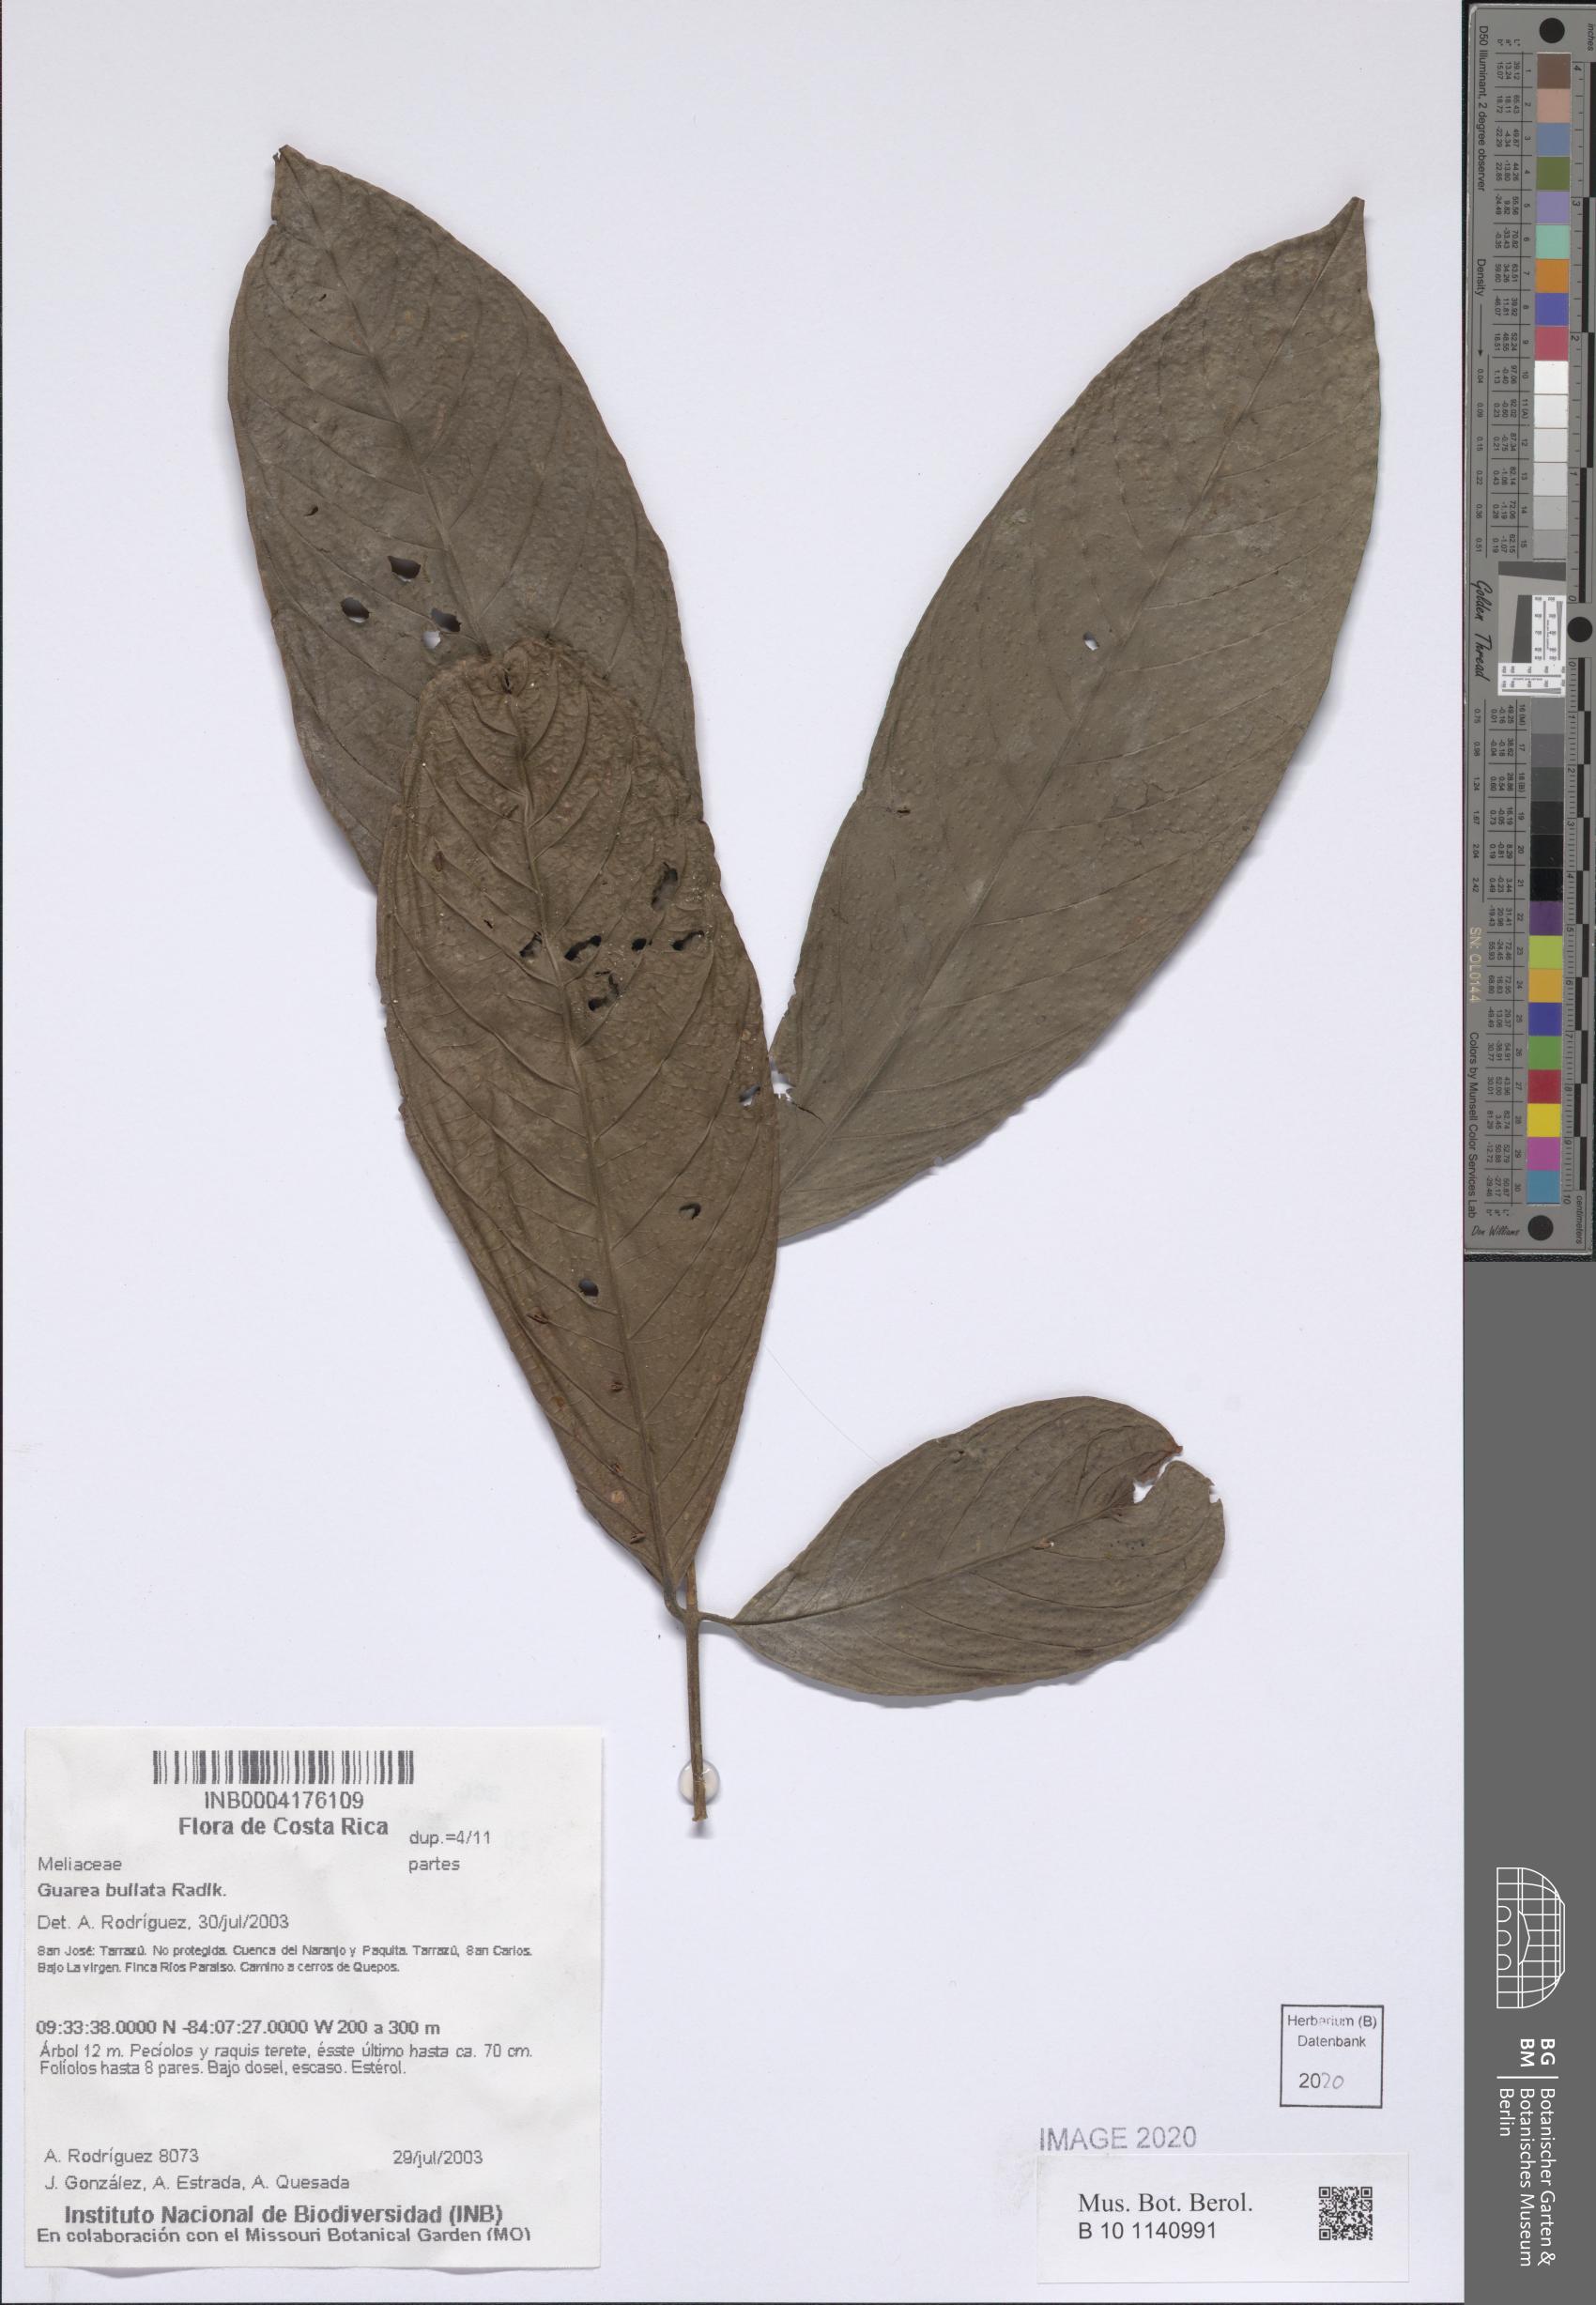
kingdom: Plantae
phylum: Tracheophyta
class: Magnoliopsida
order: Sapindales
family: Meliaceae
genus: Guarea
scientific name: Guarea glabra
